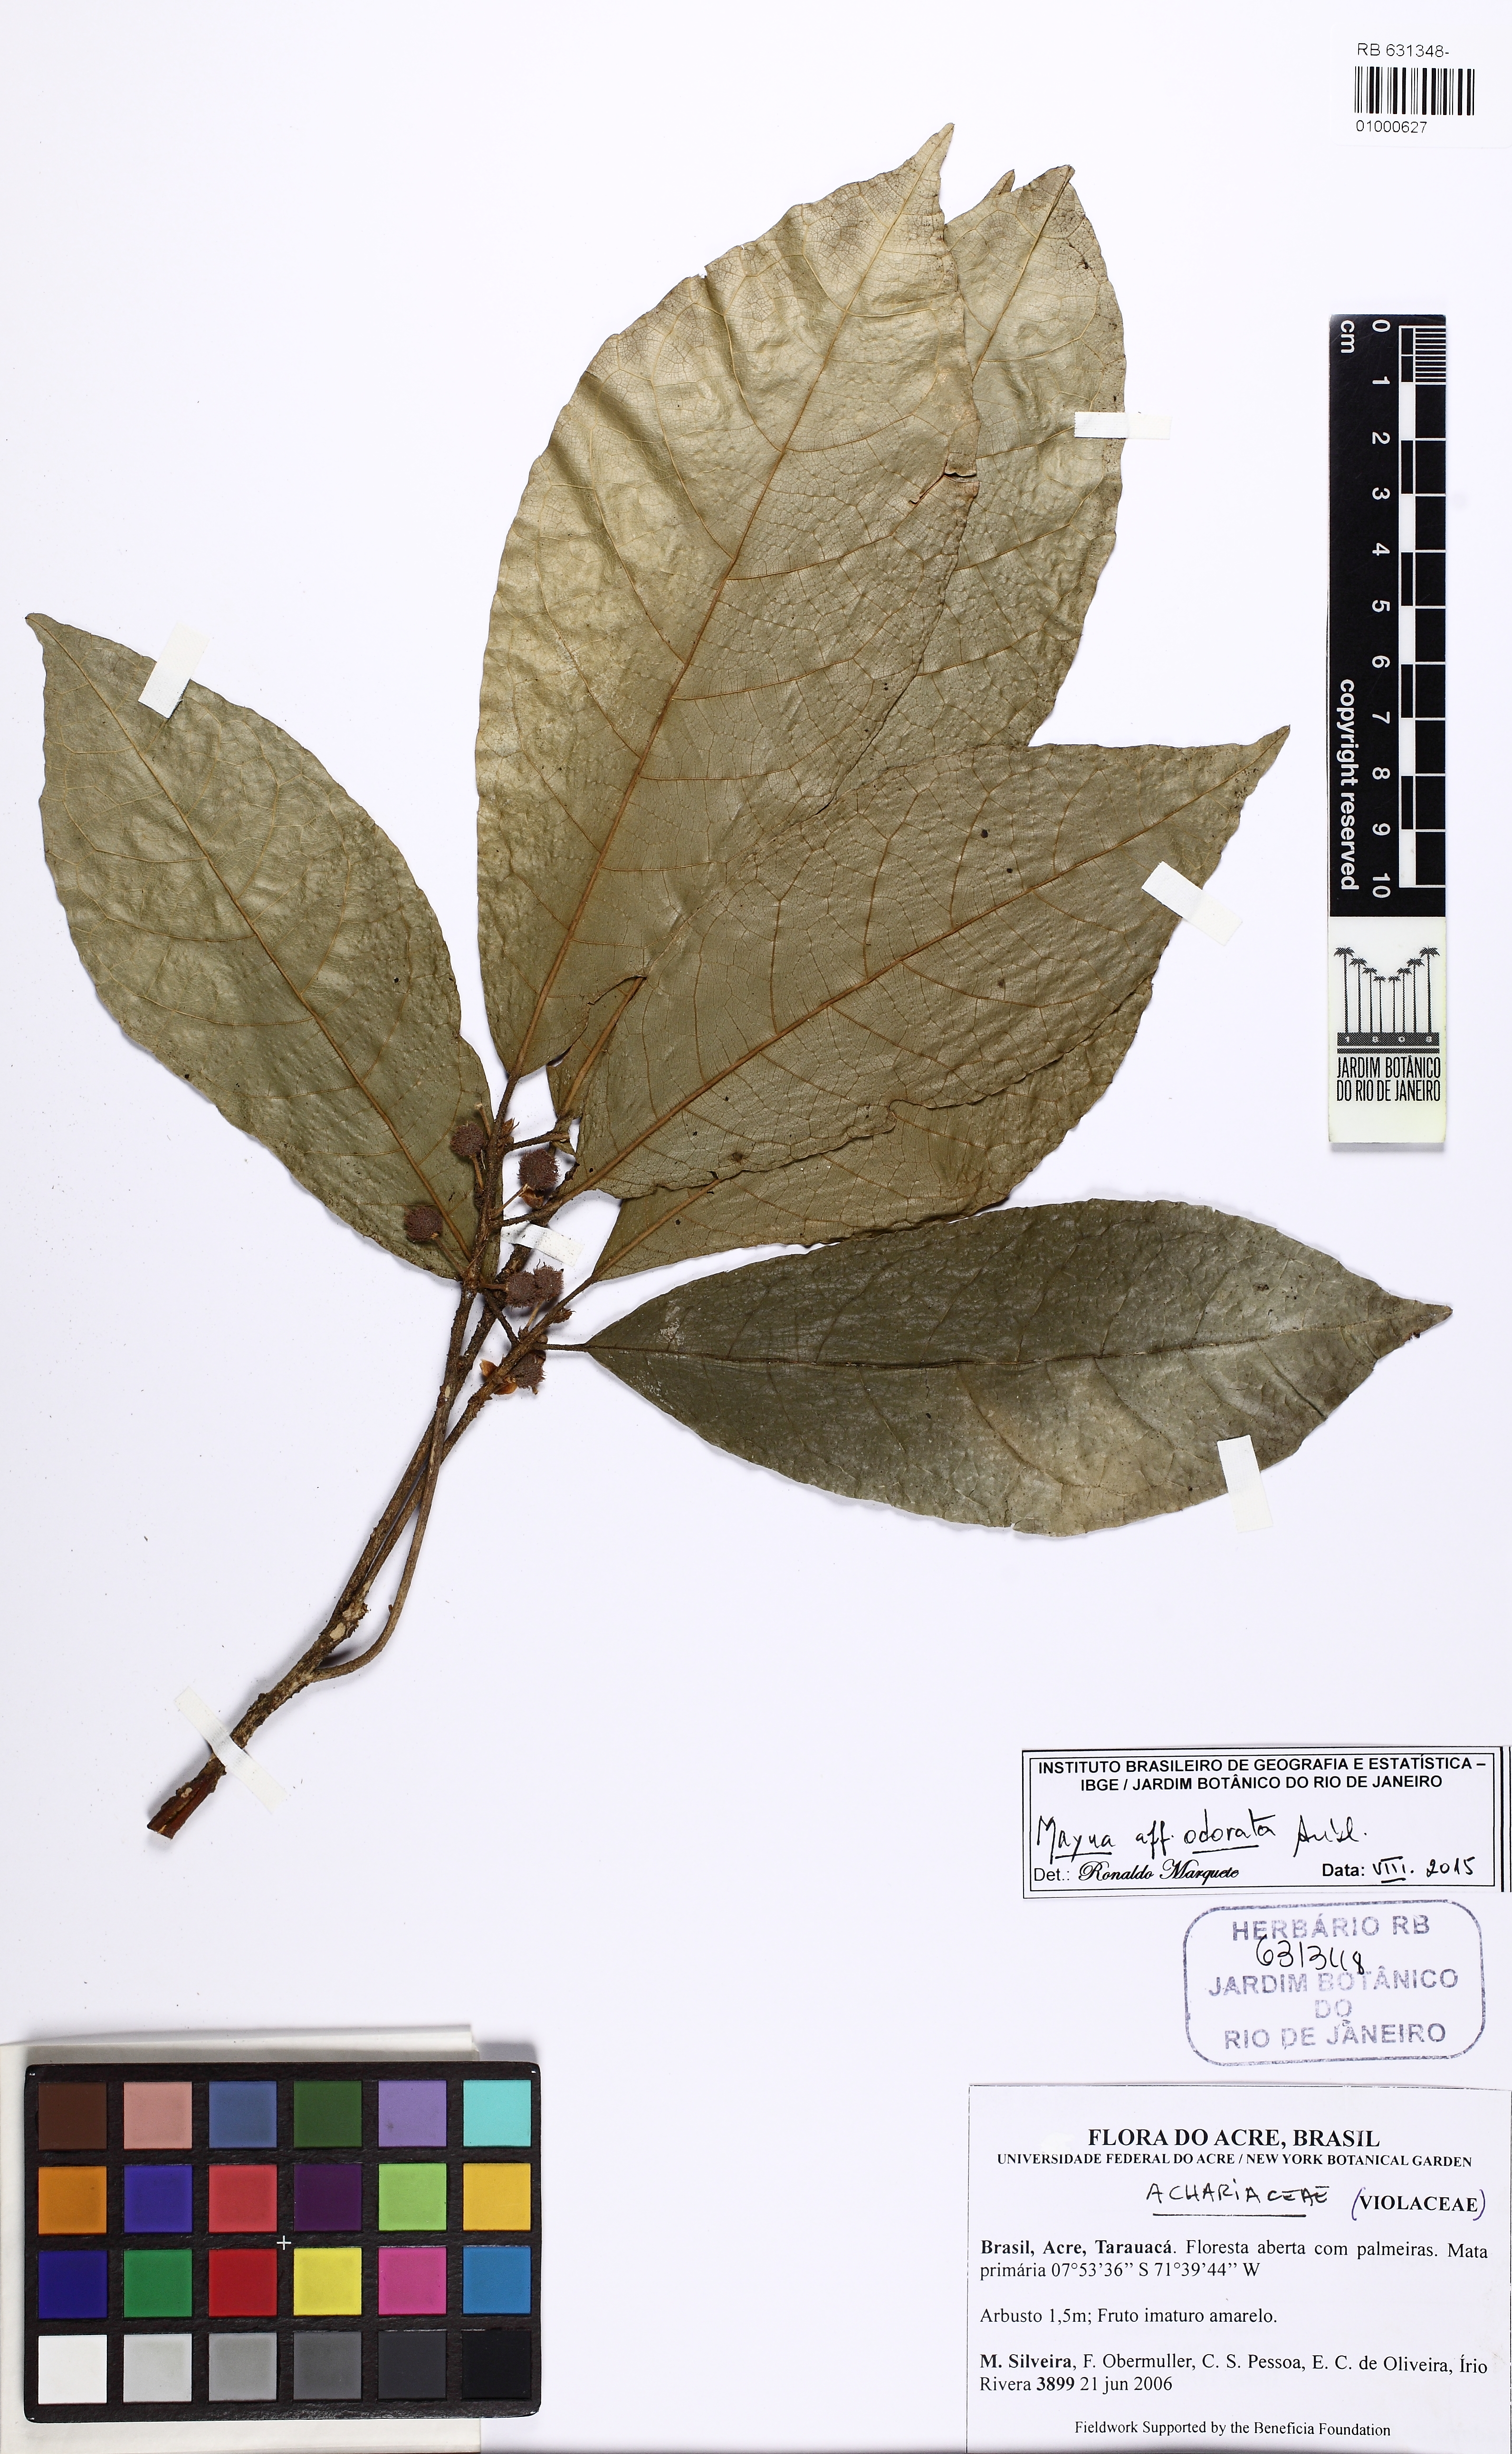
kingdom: Plantae
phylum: Tracheophyta
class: Magnoliopsida
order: Malpighiales
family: Achariaceae
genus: Mayna
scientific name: Mayna odorata
